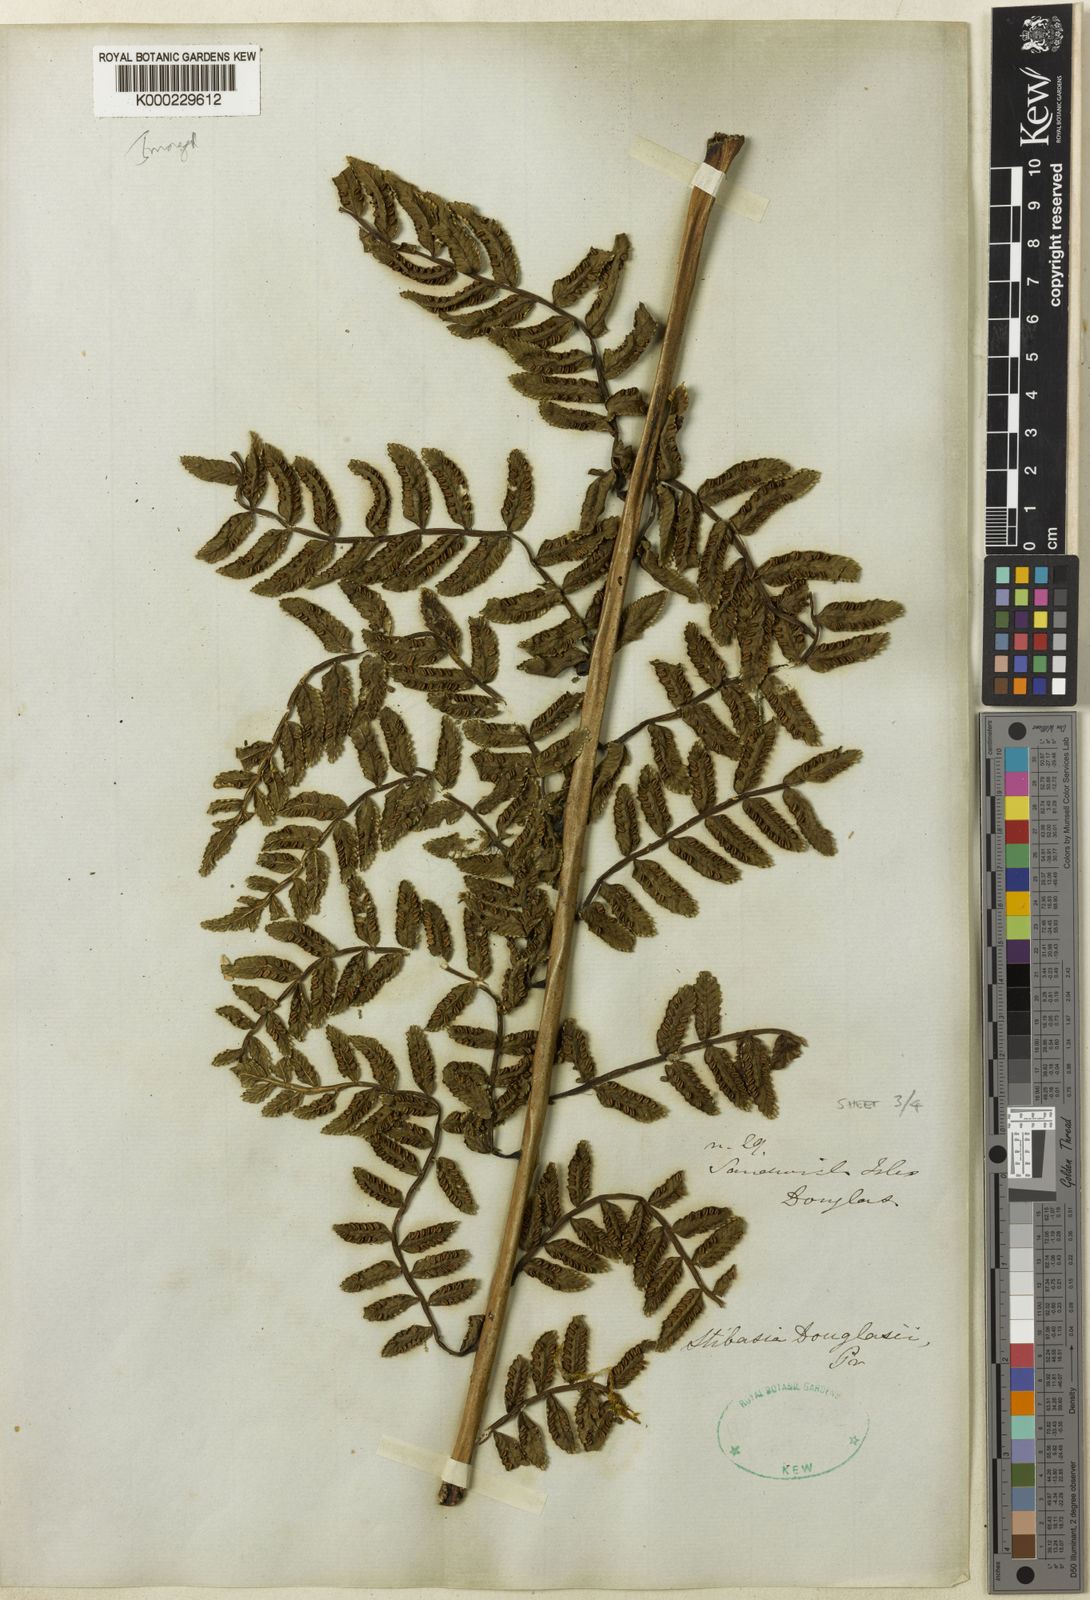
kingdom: Plantae
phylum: Tracheophyta
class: Polypodiopsida
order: Marattiales
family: Marattiaceae
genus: Marattia
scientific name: Marattia douglasii
